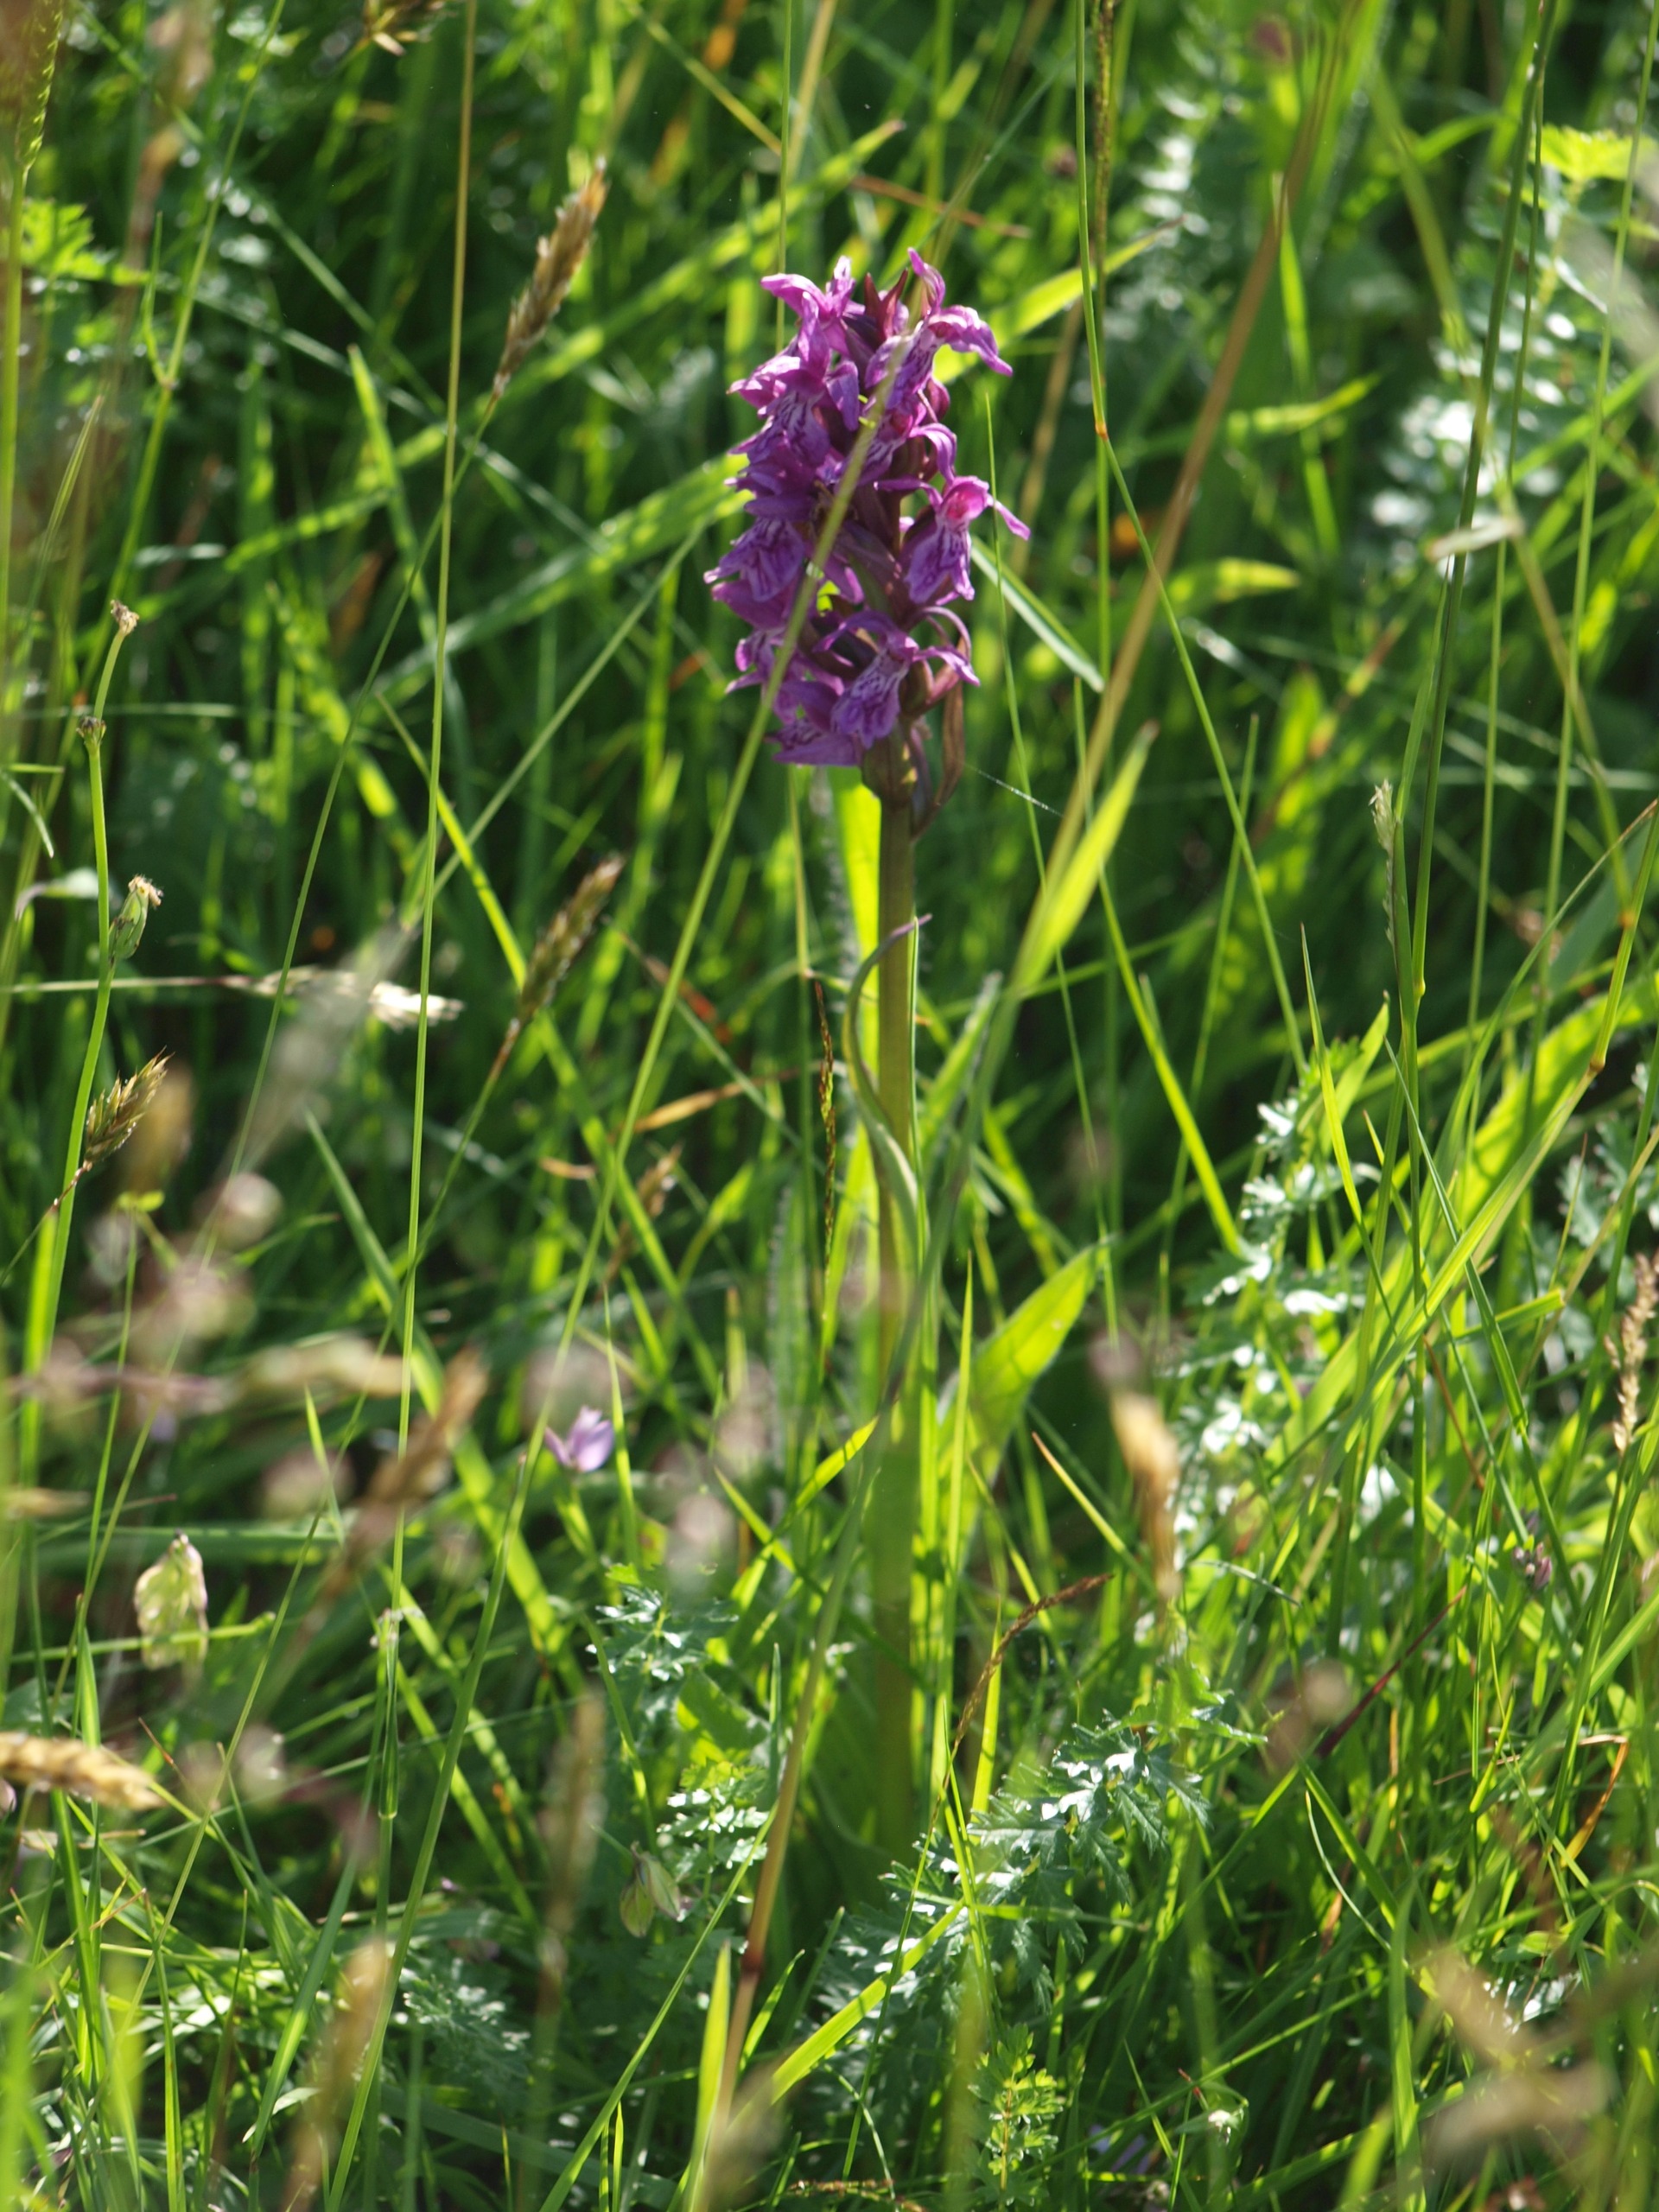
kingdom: Plantae
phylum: Tracheophyta
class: Liliopsida
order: Asparagales
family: Orchidaceae
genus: Dactylorhiza
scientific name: Dactylorhiza majalis
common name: Maj-gøgeurt
